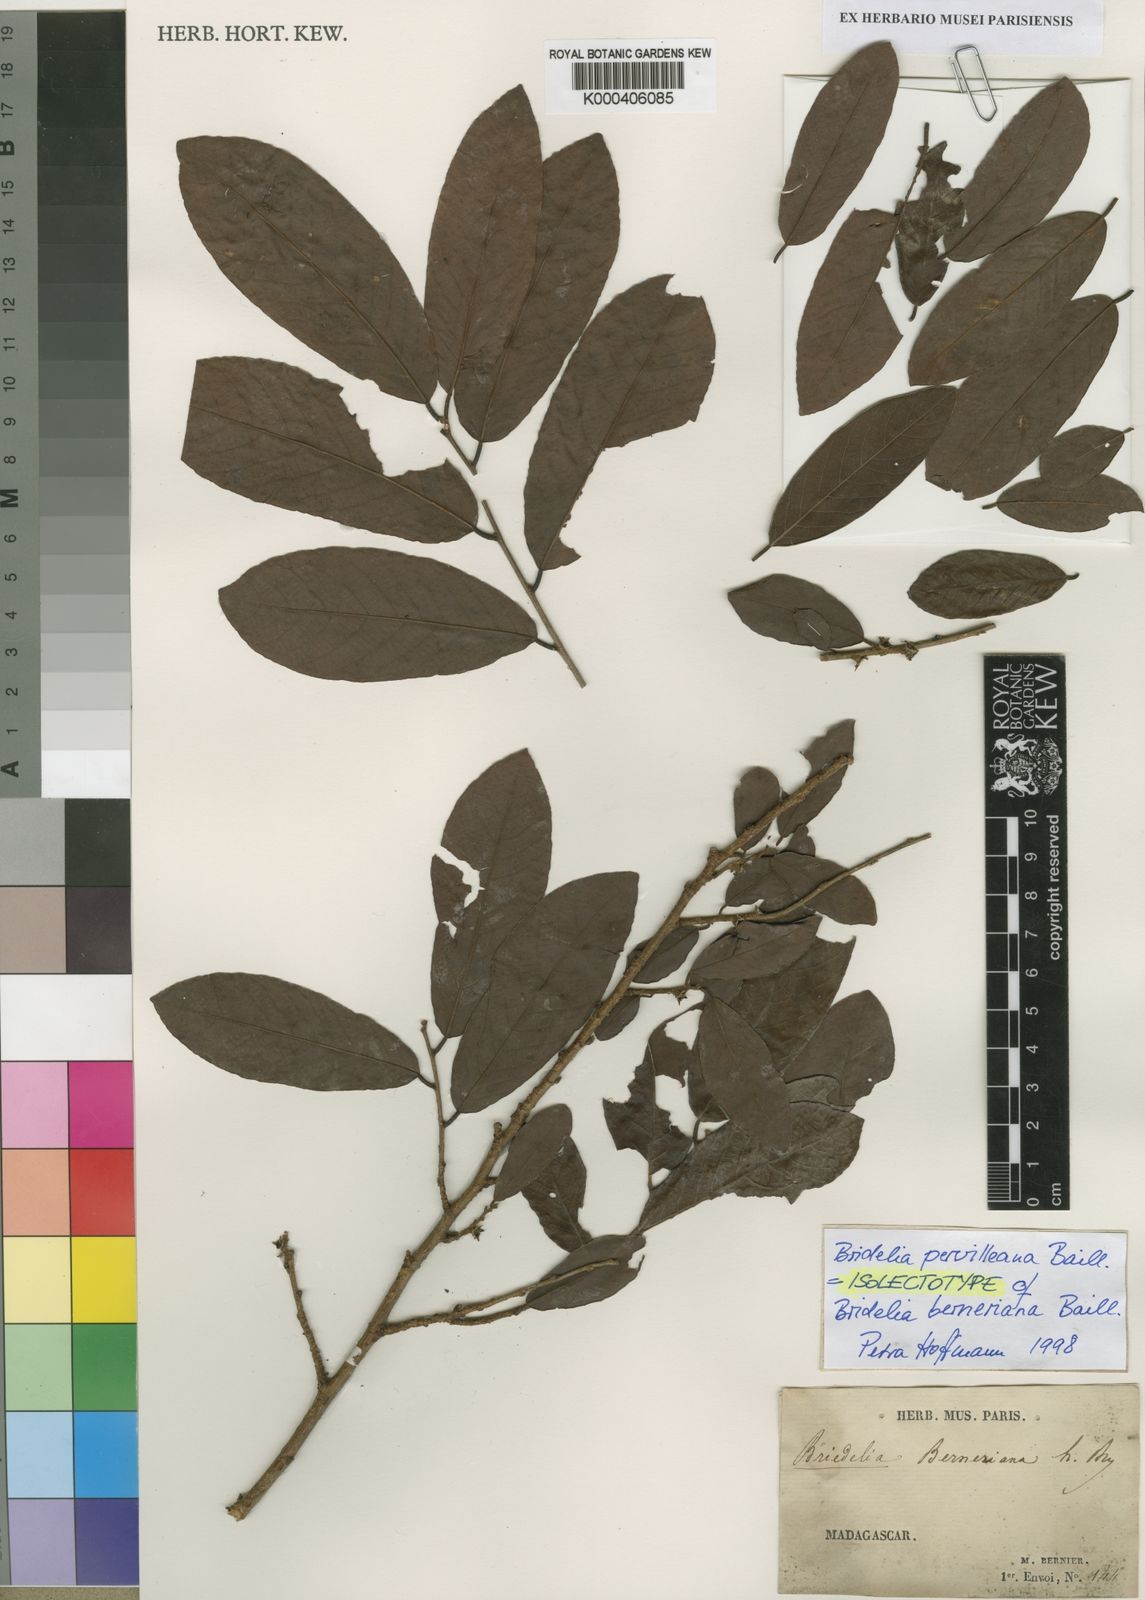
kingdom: Plantae
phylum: Tracheophyta
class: Magnoliopsida
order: Malpighiales
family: Phyllanthaceae
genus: Bridelia
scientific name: Bridelia pervilleana
